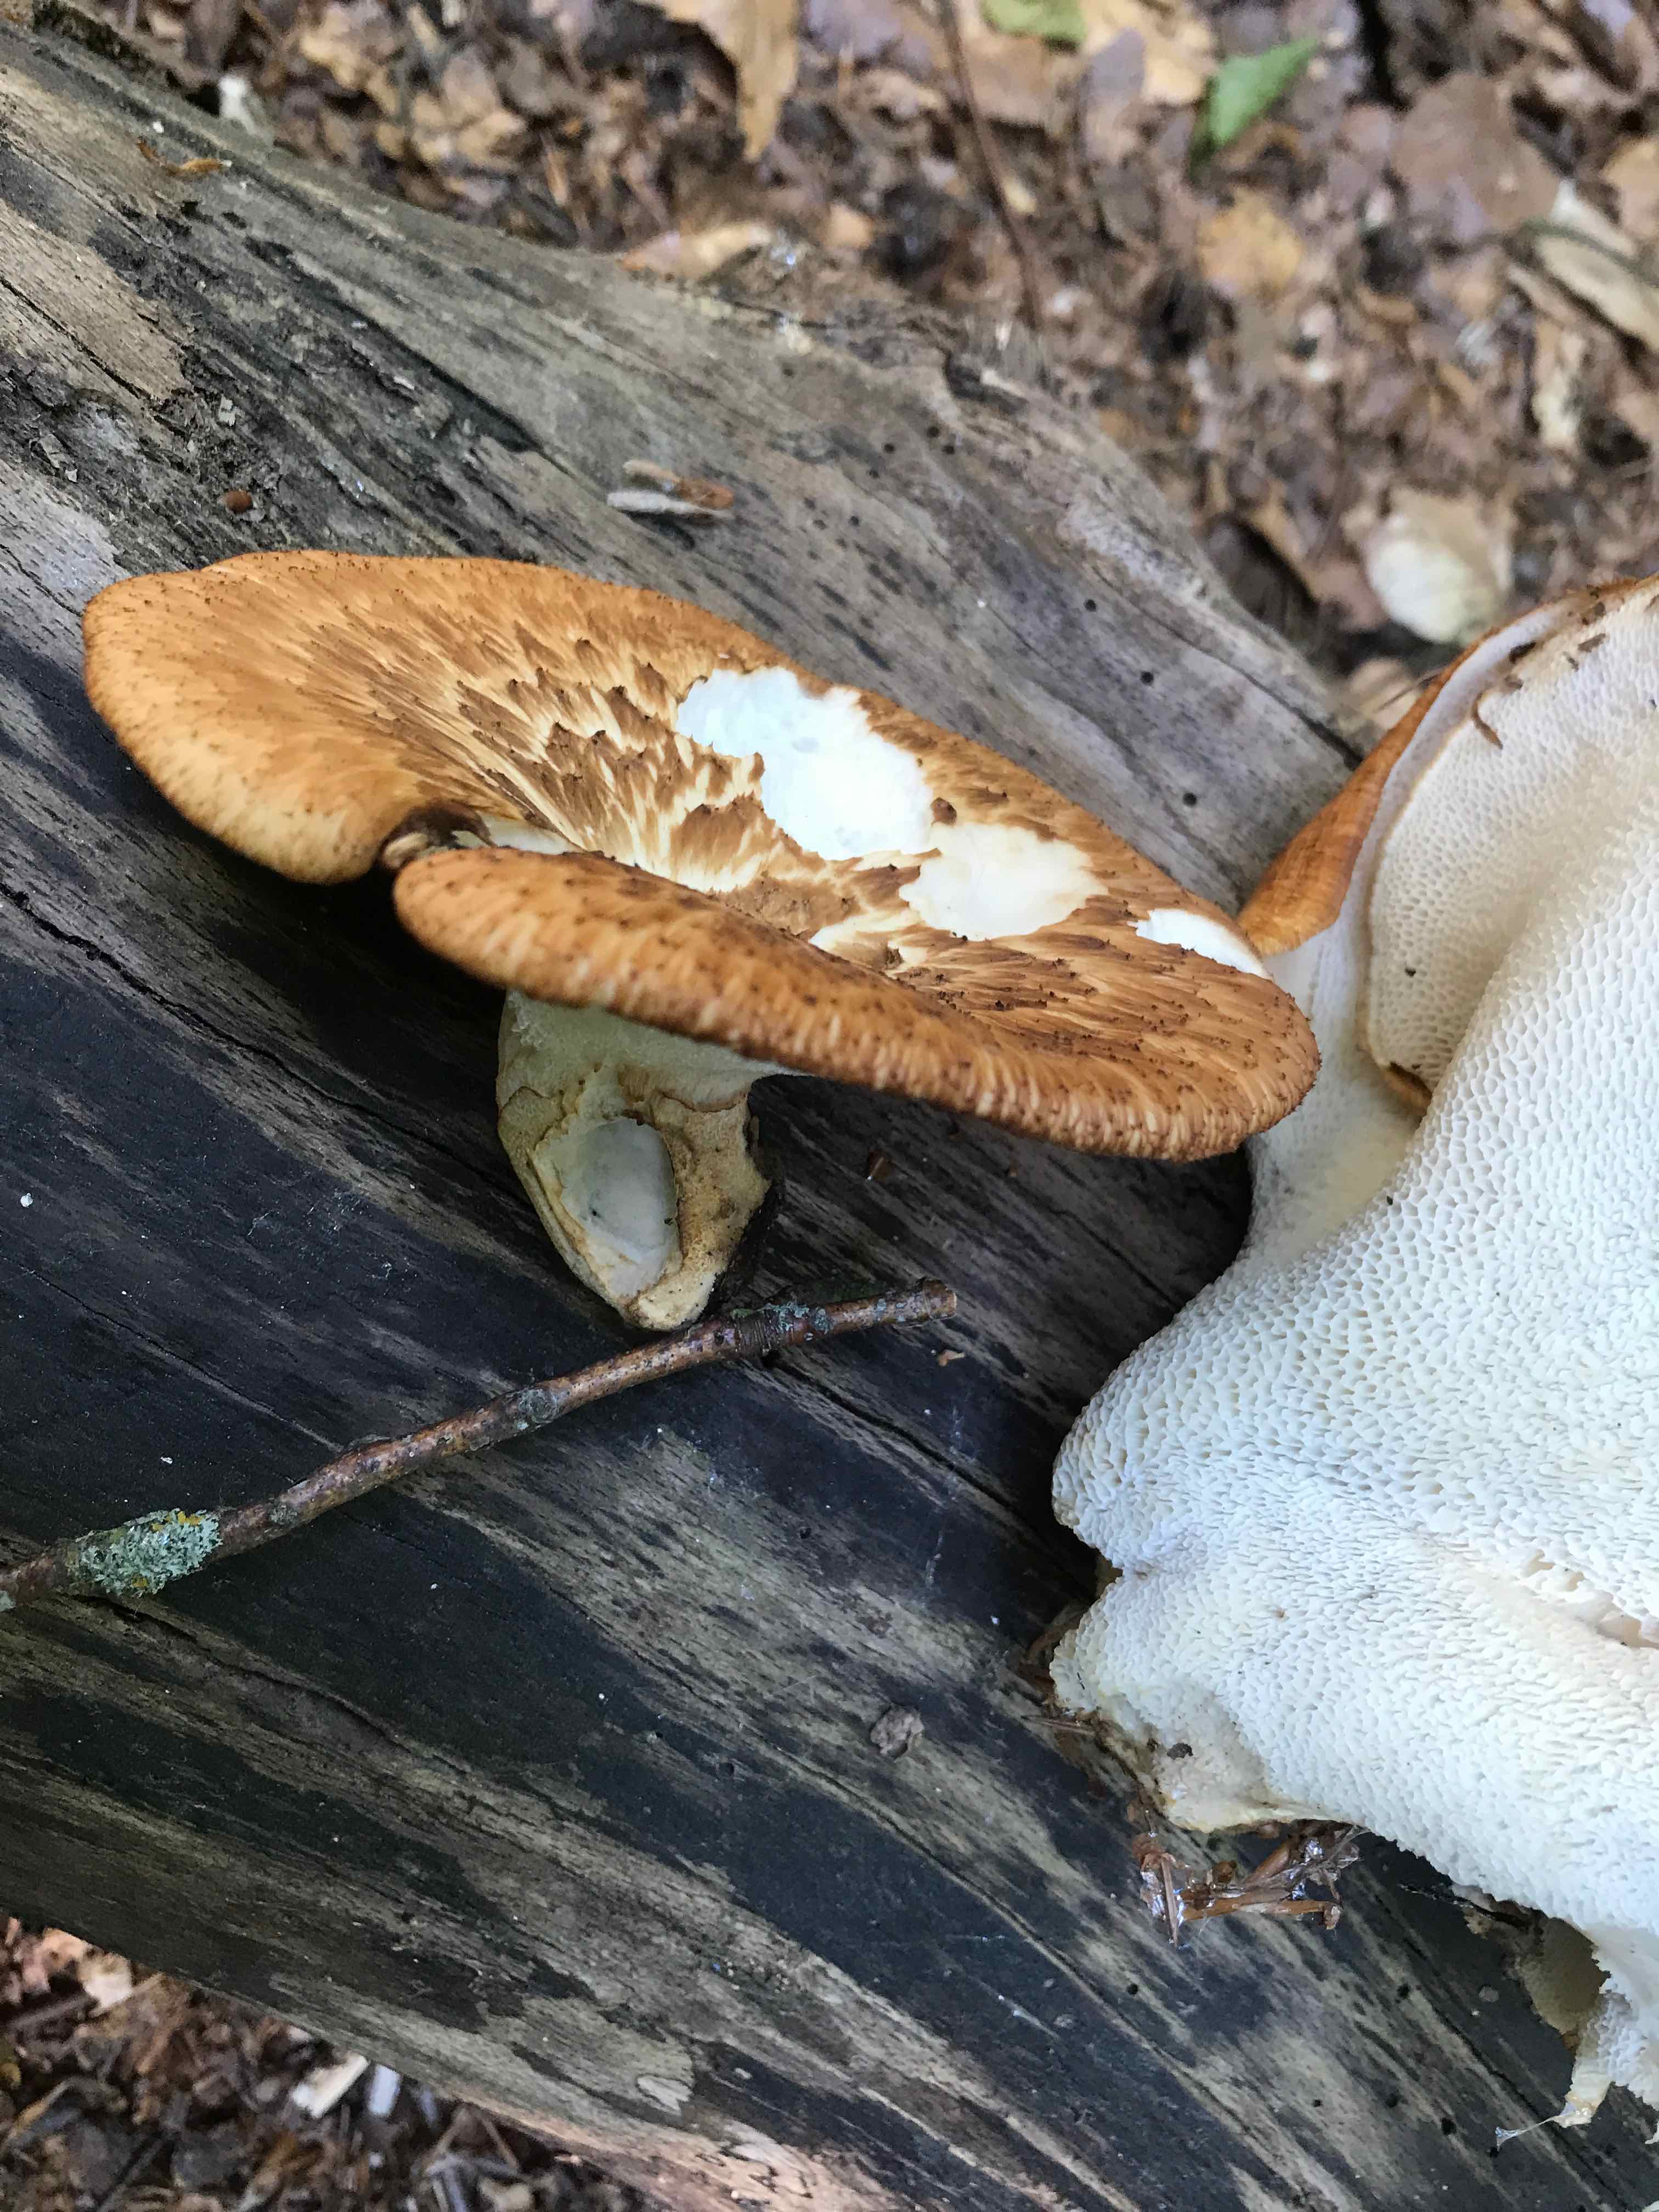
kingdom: Fungi
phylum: Basidiomycota
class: Agaricomycetes
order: Polyporales
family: Polyporaceae
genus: Polyporus
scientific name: Polyporus tuberaster
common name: knoldet stilkporesvamp
